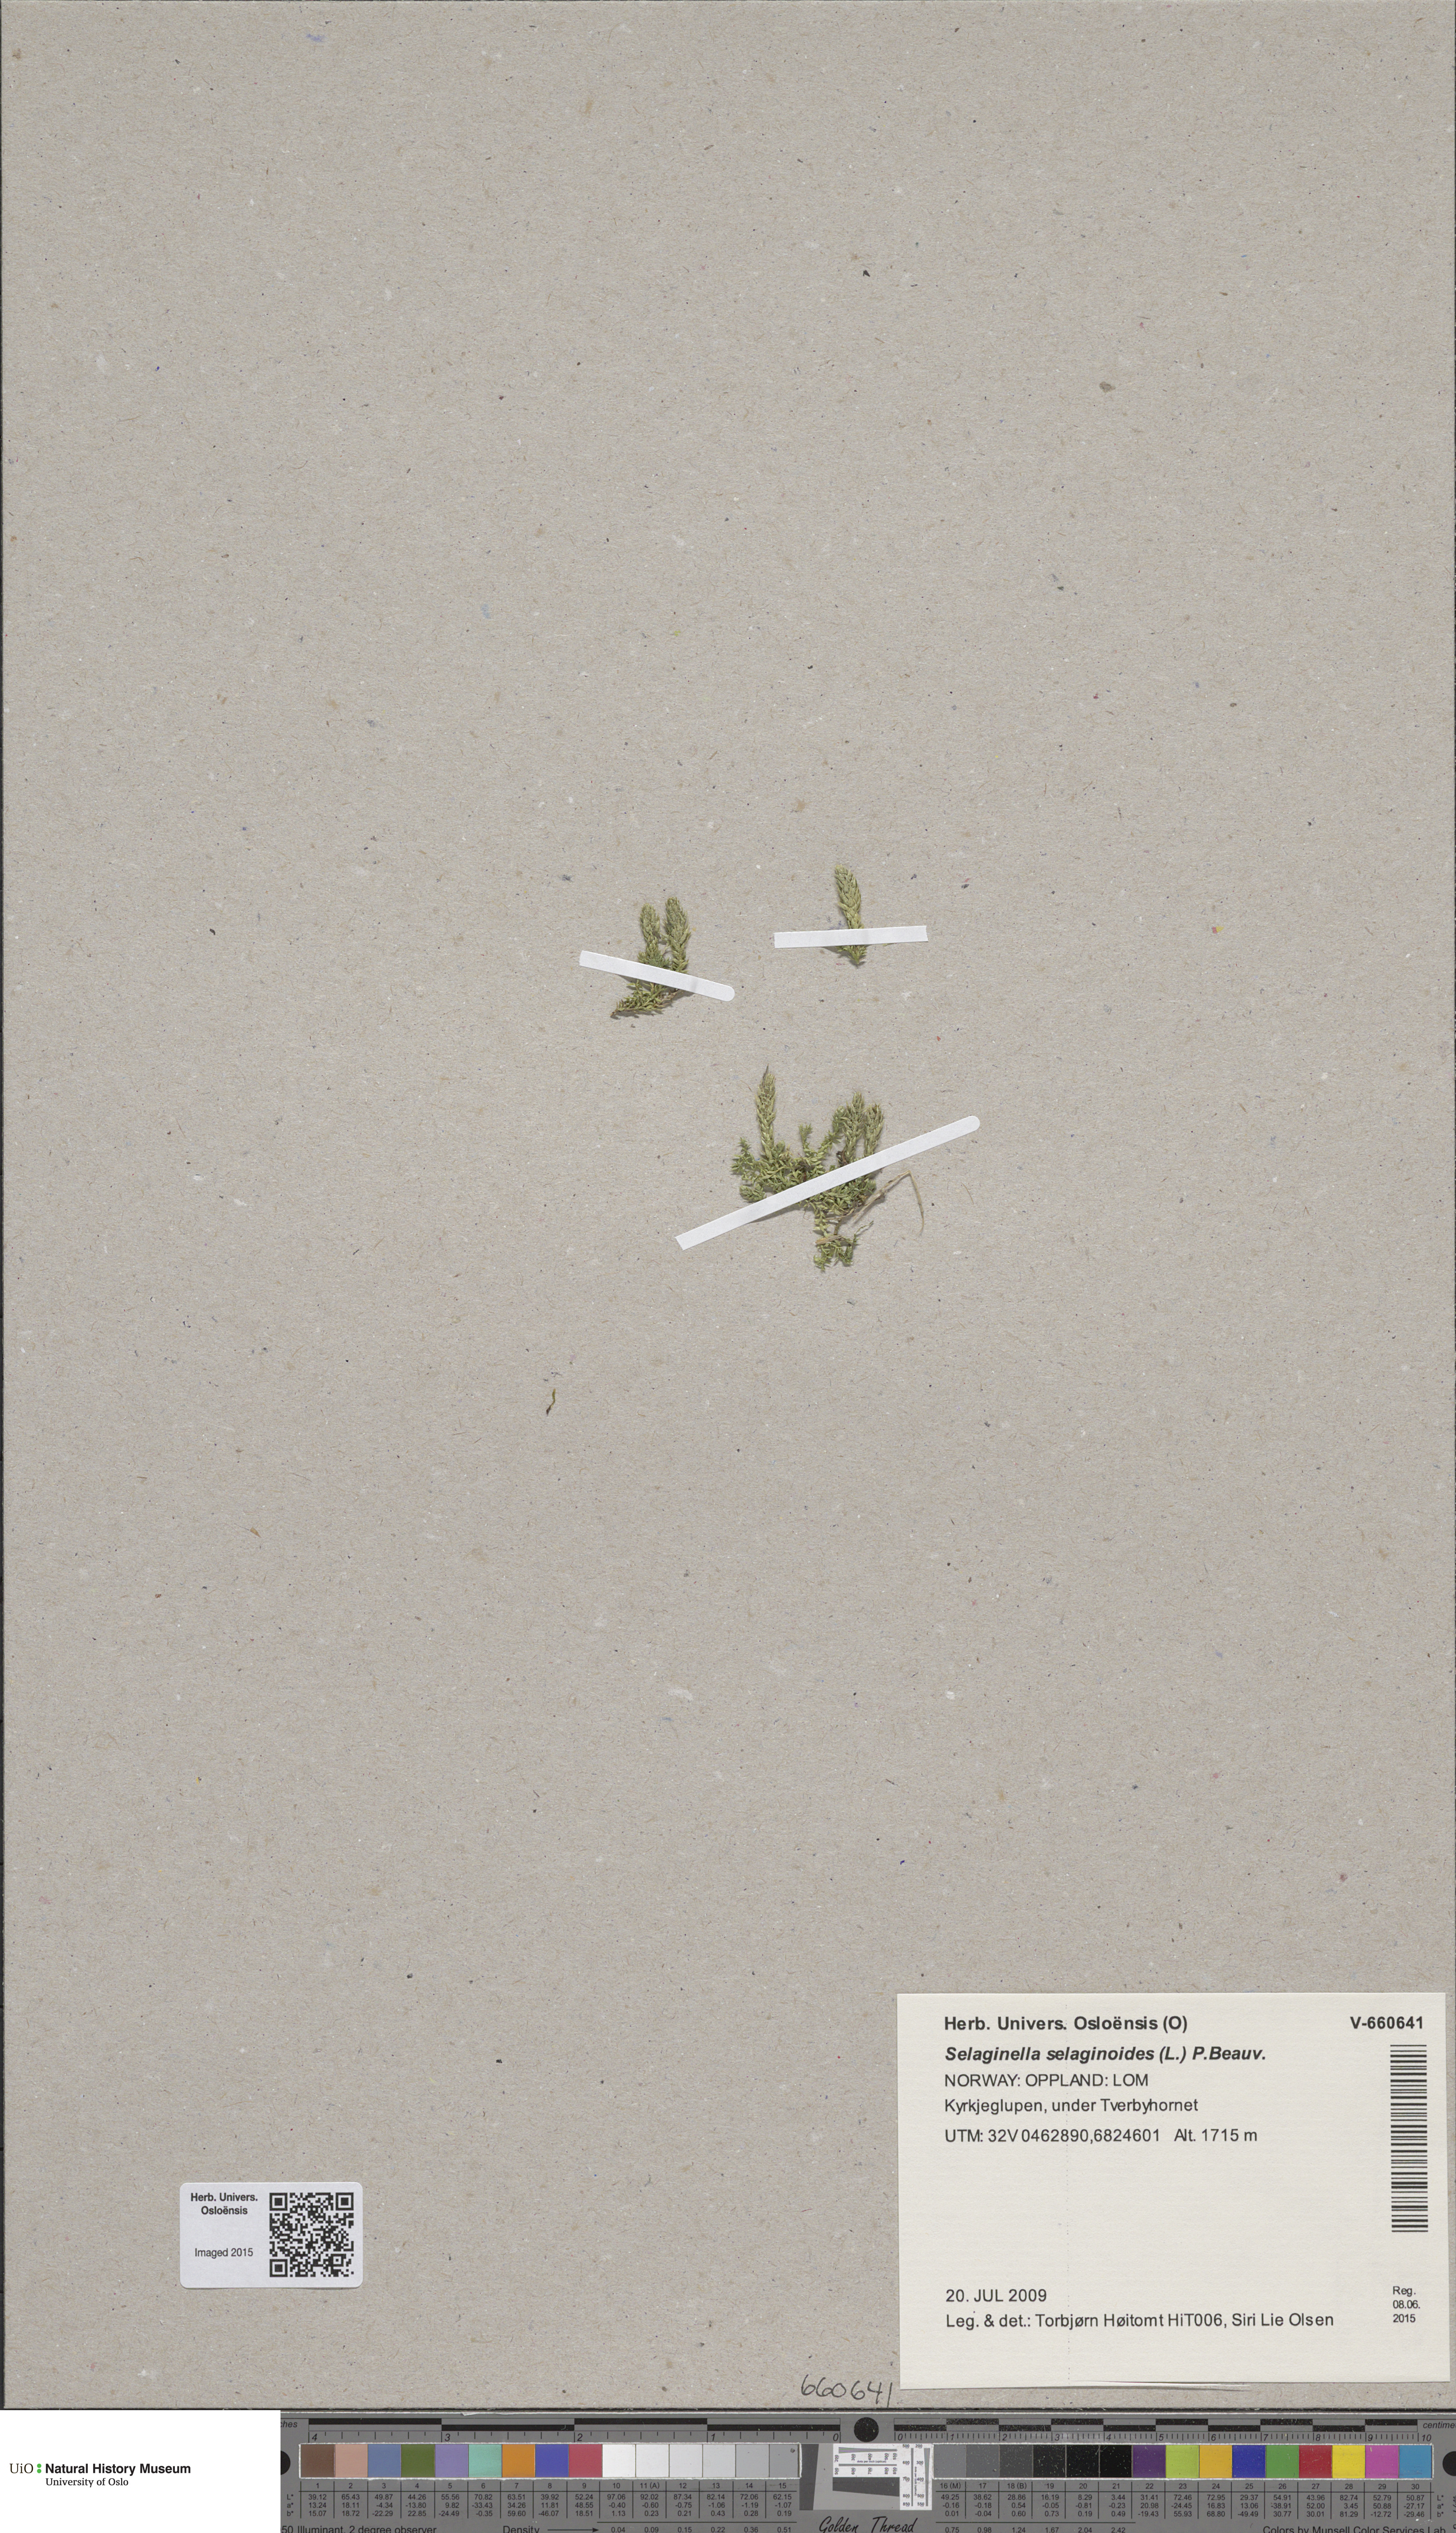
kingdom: Plantae
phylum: Tracheophyta
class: Lycopodiopsida
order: Selaginellales
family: Selaginellaceae
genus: Selaginella
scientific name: Selaginella selaginoides
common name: Prickly mountain-moss
